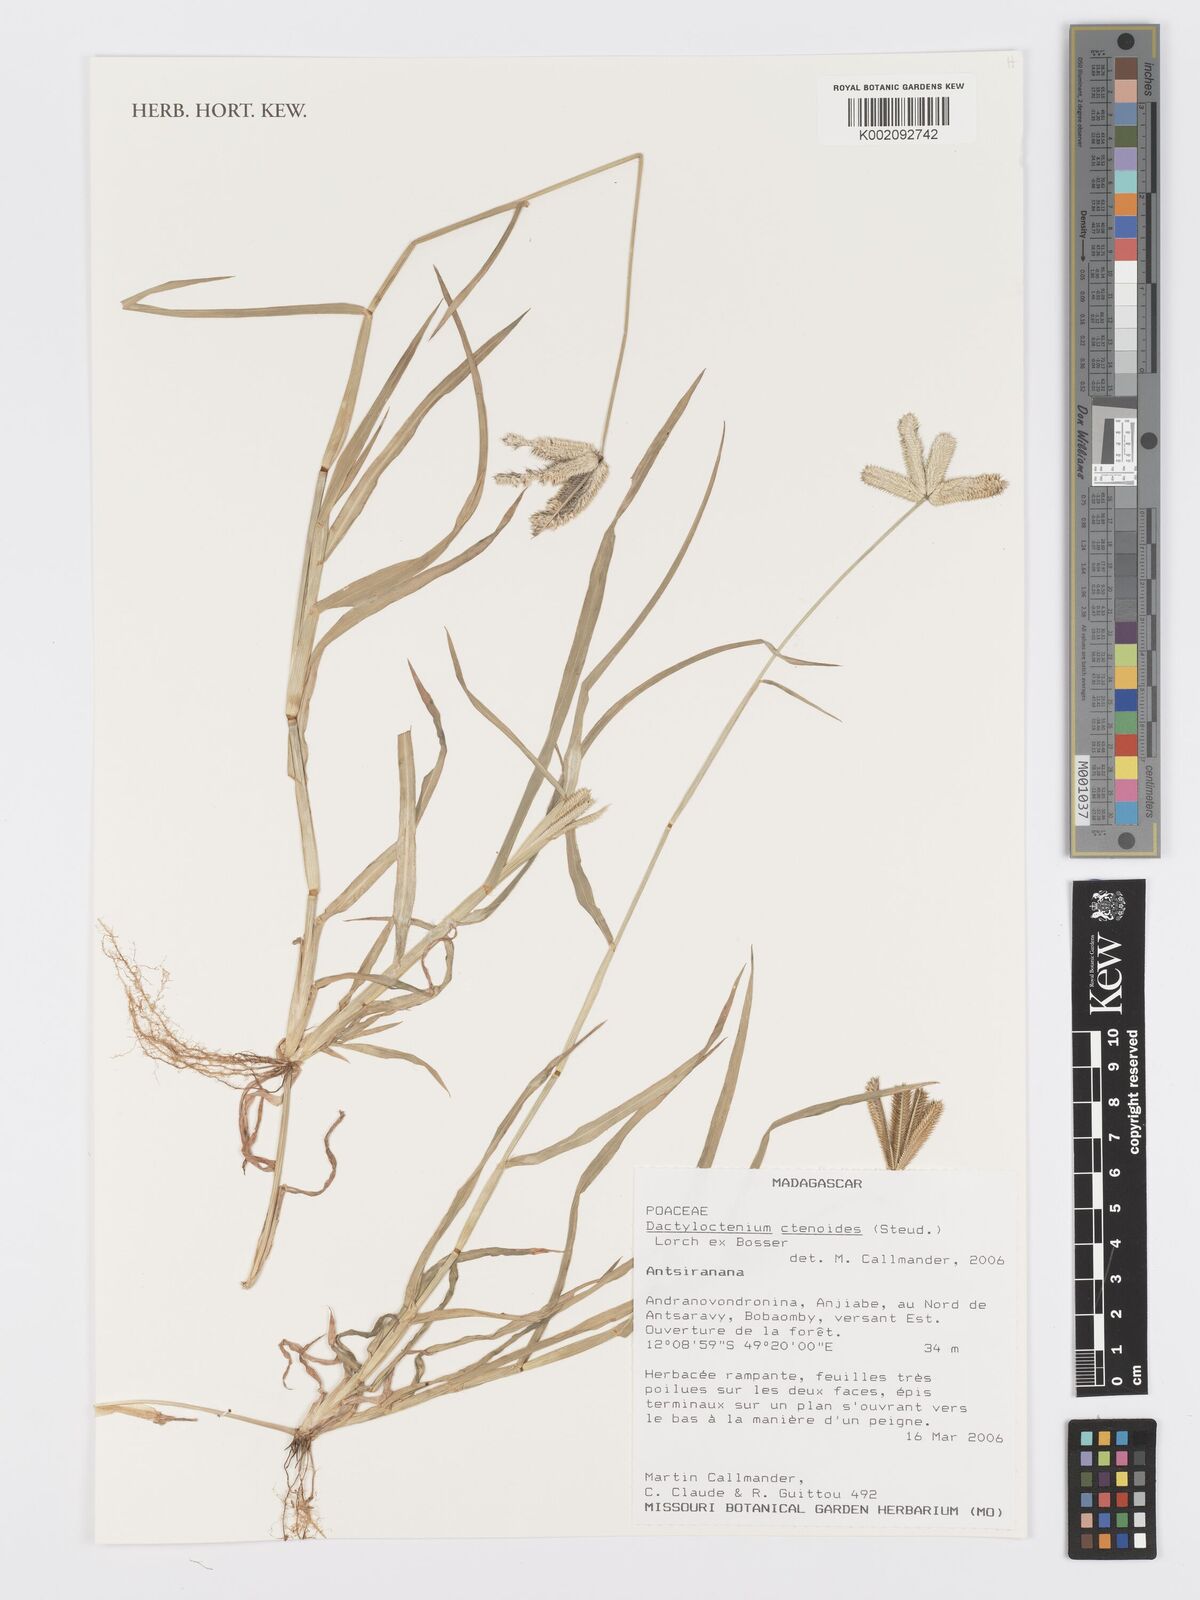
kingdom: Plantae
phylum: Tracheophyta
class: Liliopsida
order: Poales
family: Poaceae
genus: Dactyloctenium
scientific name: Dactyloctenium ctenoides
